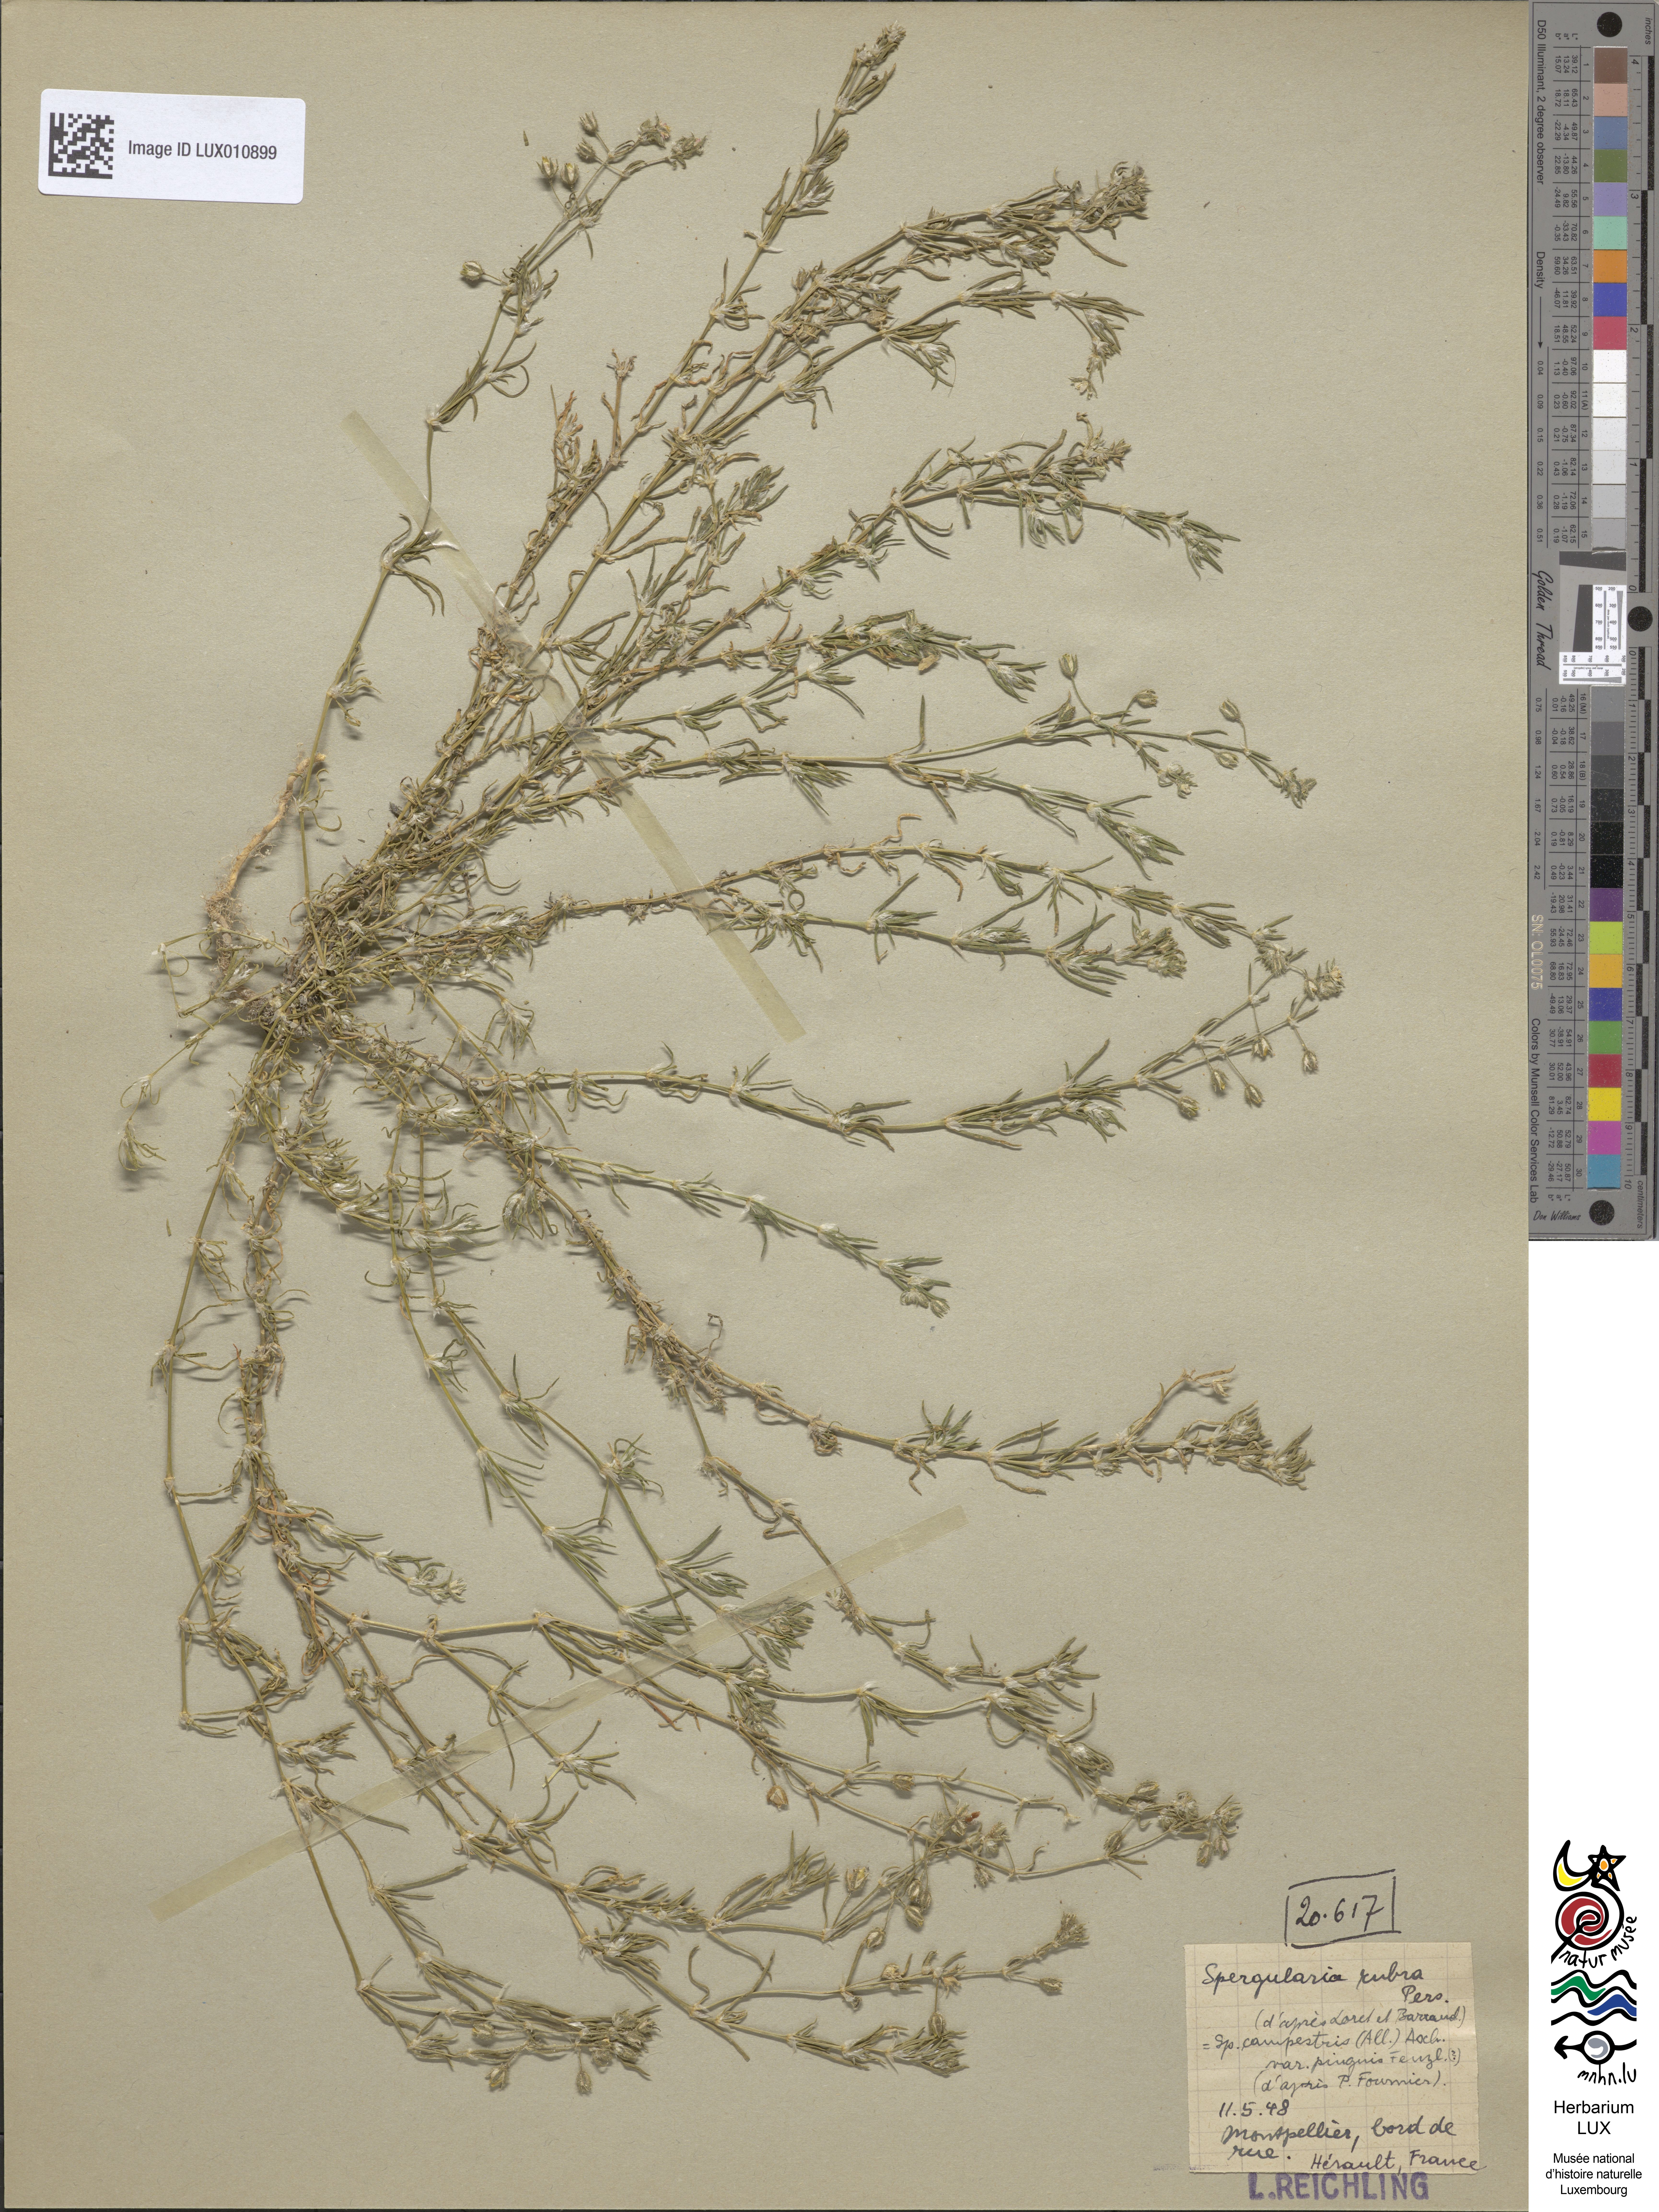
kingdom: Plantae
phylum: Tracheophyta
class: Magnoliopsida
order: Caryophyllales
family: Caryophyllaceae
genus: Spergularia
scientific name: Spergularia rubra
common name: Red sand-spurrey
